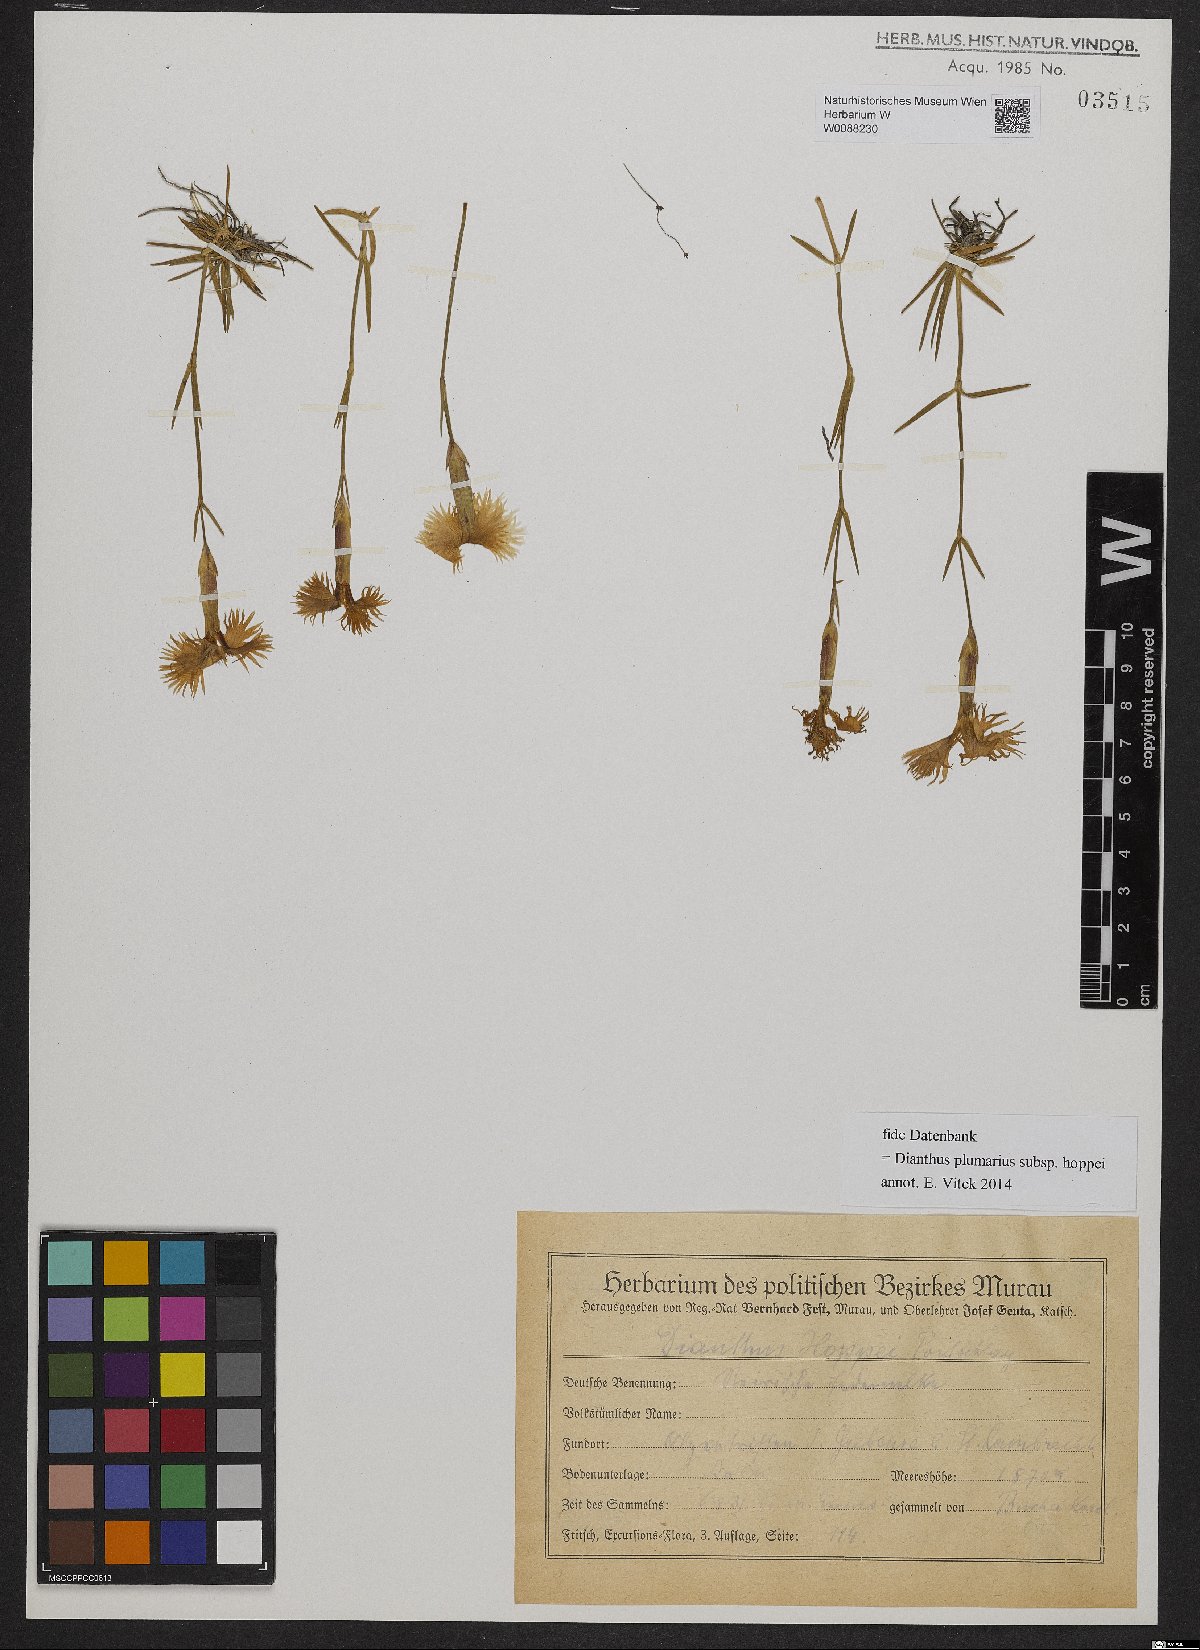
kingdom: Plantae
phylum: Tracheophyta
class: Magnoliopsida
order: Caryophyllales
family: Caryophyllaceae
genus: Dianthus
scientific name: Dianthus plumarius
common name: Pink
